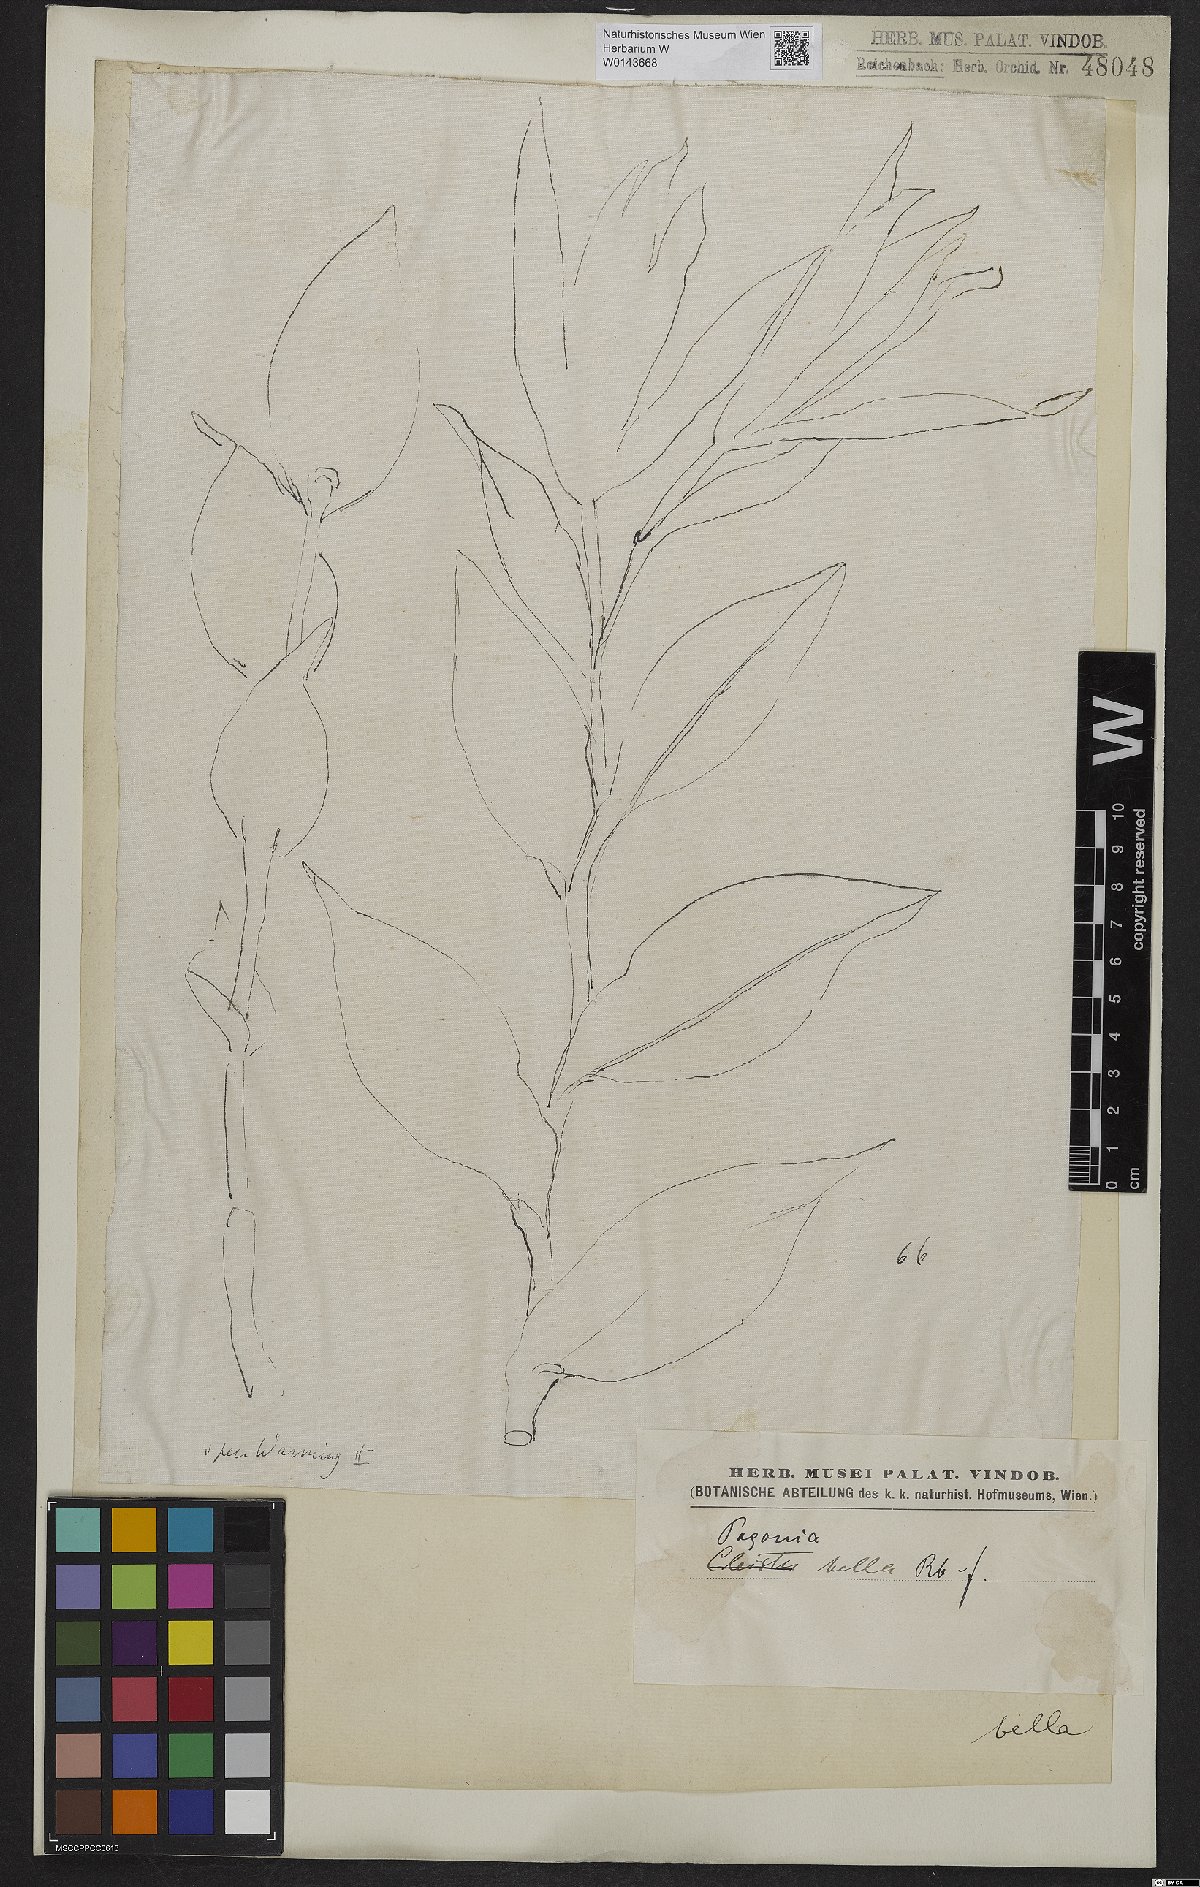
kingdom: Plantae
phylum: Tracheophyta
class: Liliopsida
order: Asparagales
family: Orchidaceae
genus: Cleistes
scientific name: Cleistes bella
